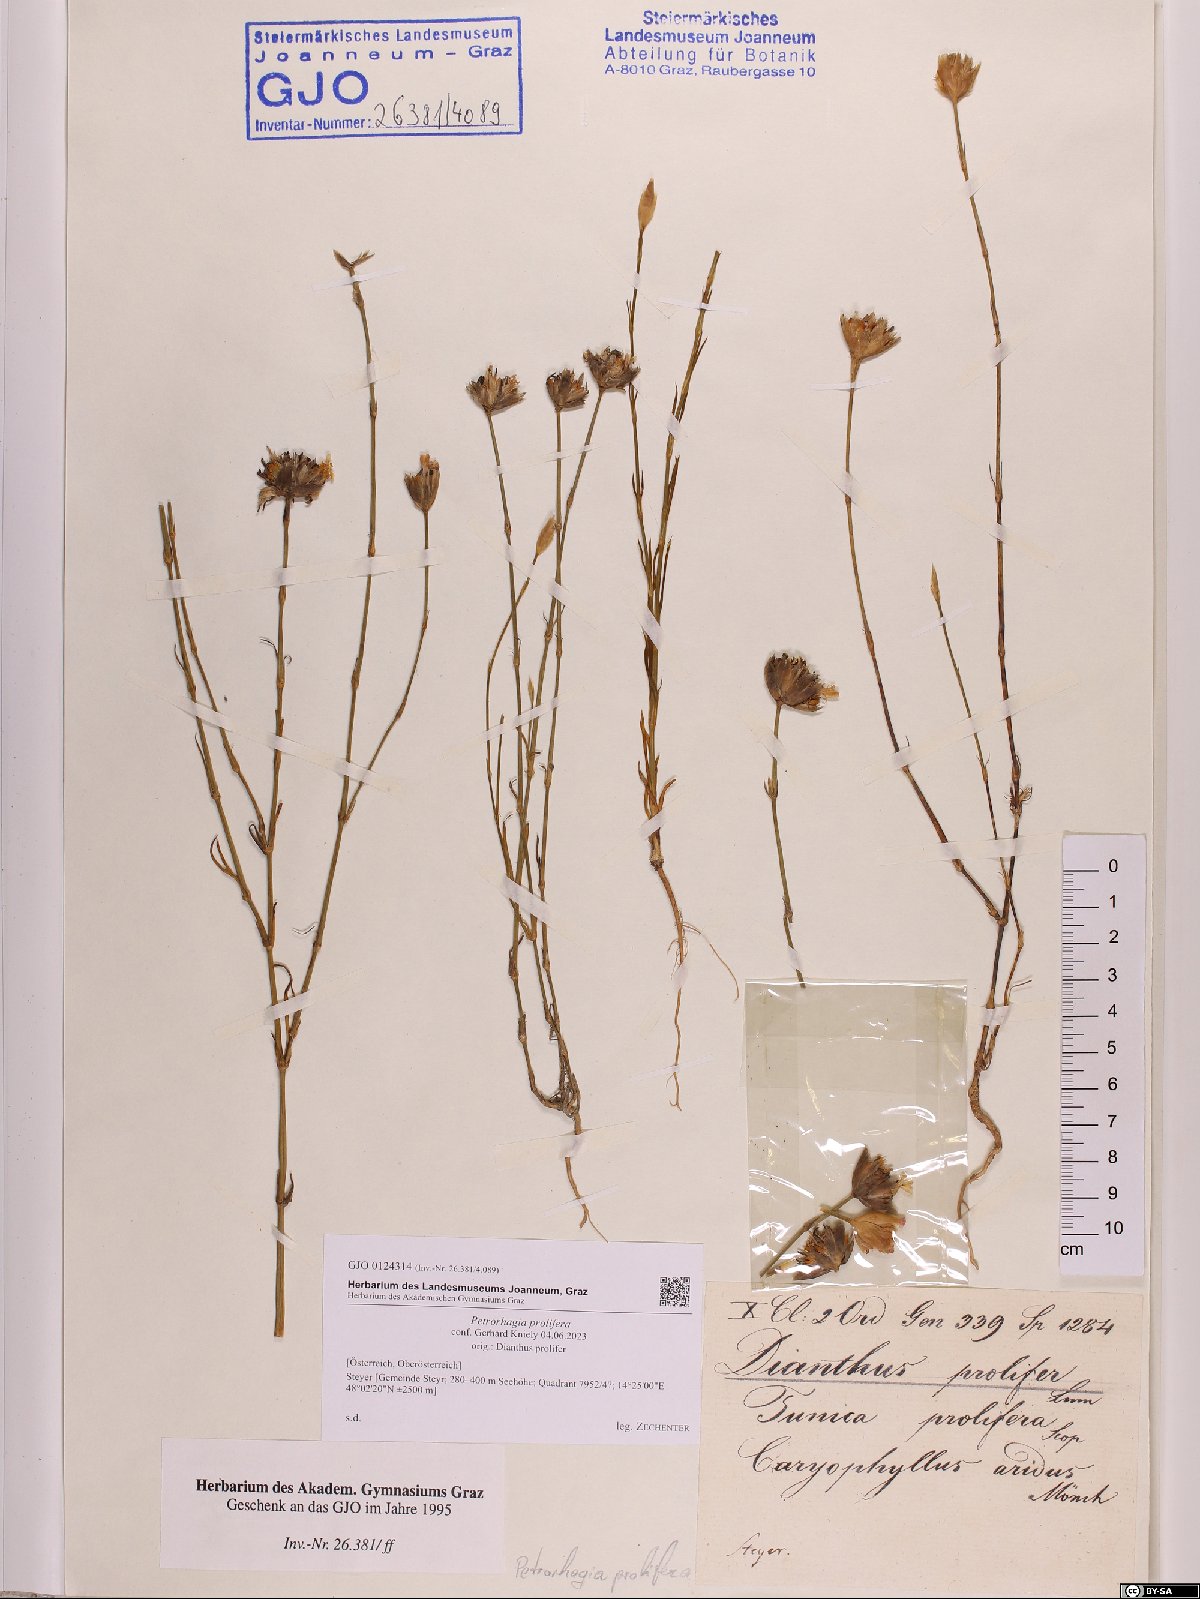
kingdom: Plantae
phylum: Tracheophyta
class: Magnoliopsida
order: Caryophyllales
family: Caryophyllaceae
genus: Petrorhagia
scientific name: Petrorhagia prolifera
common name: Proliferous pink
